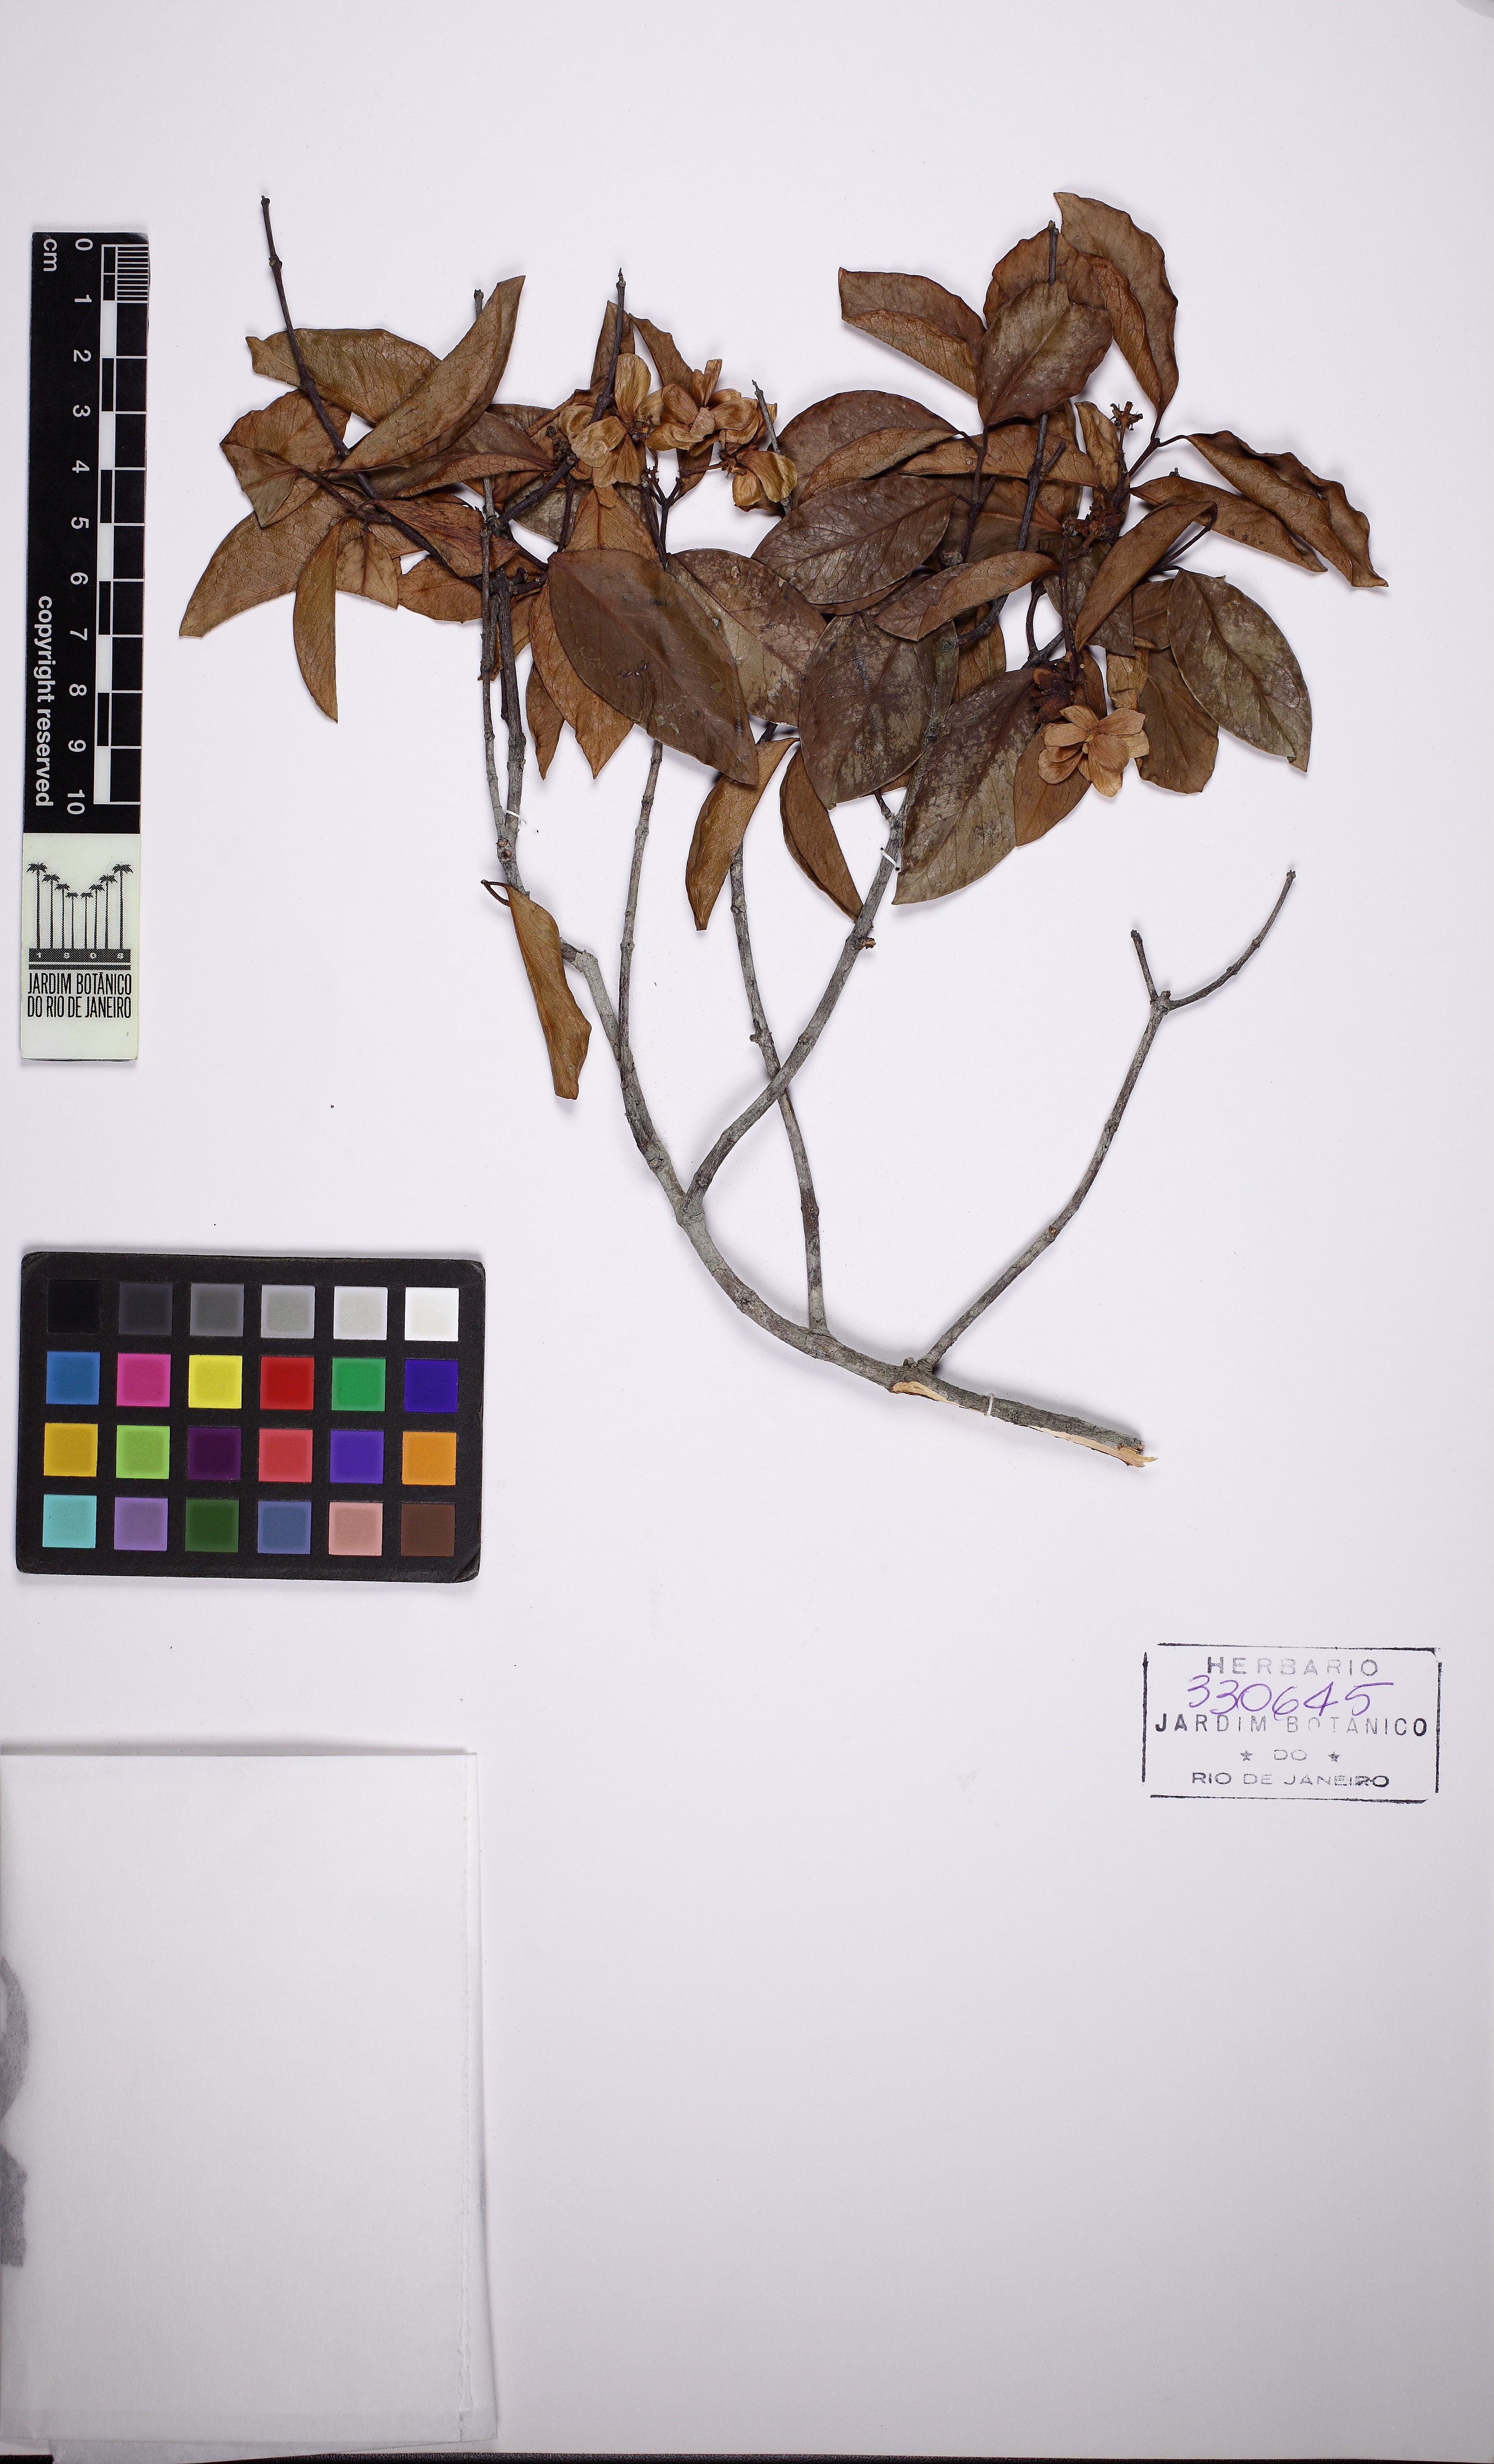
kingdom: Plantae
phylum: Tracheophyta
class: Magnoliopsida
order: Malpighiales
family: Malpighiaceae
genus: Niedenzuella
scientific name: Niedenzuella acutifolia
